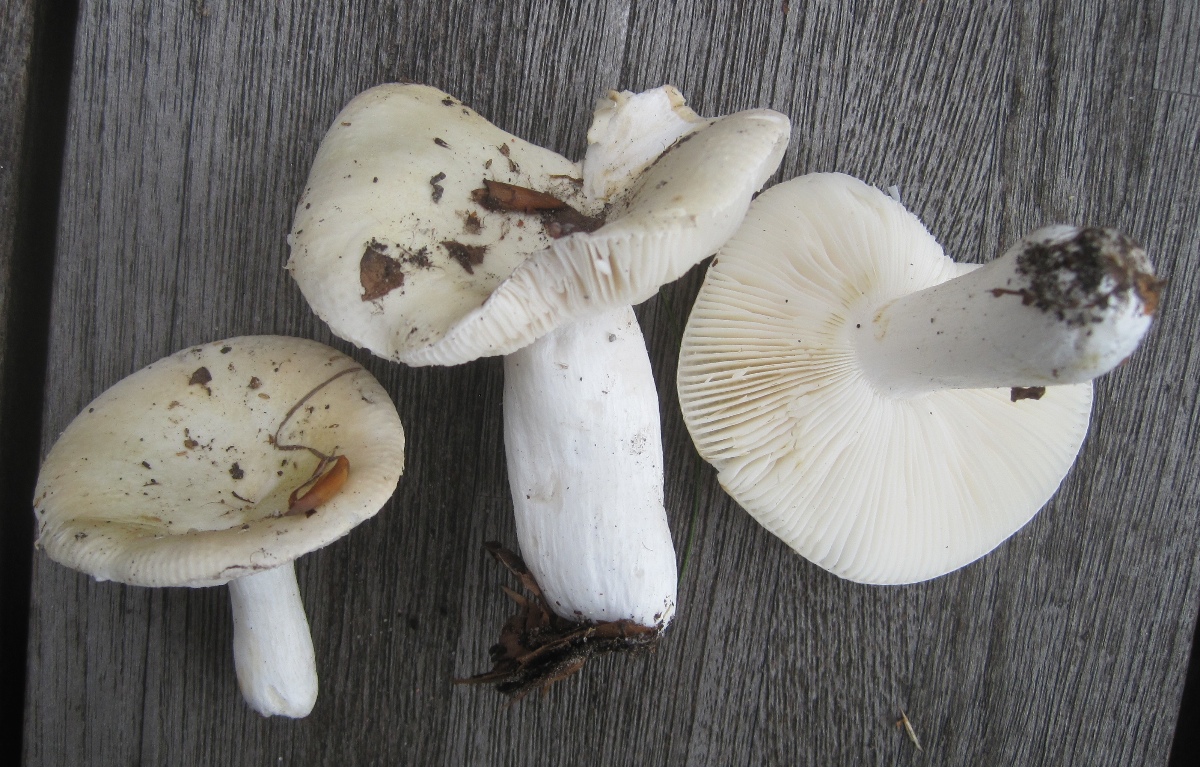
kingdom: Fungi
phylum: Basidiomycota
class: Agaricomycetes
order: Russulales
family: Russulaceae
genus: Russula
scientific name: Russula roseoaurantia
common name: kornet skørhat
